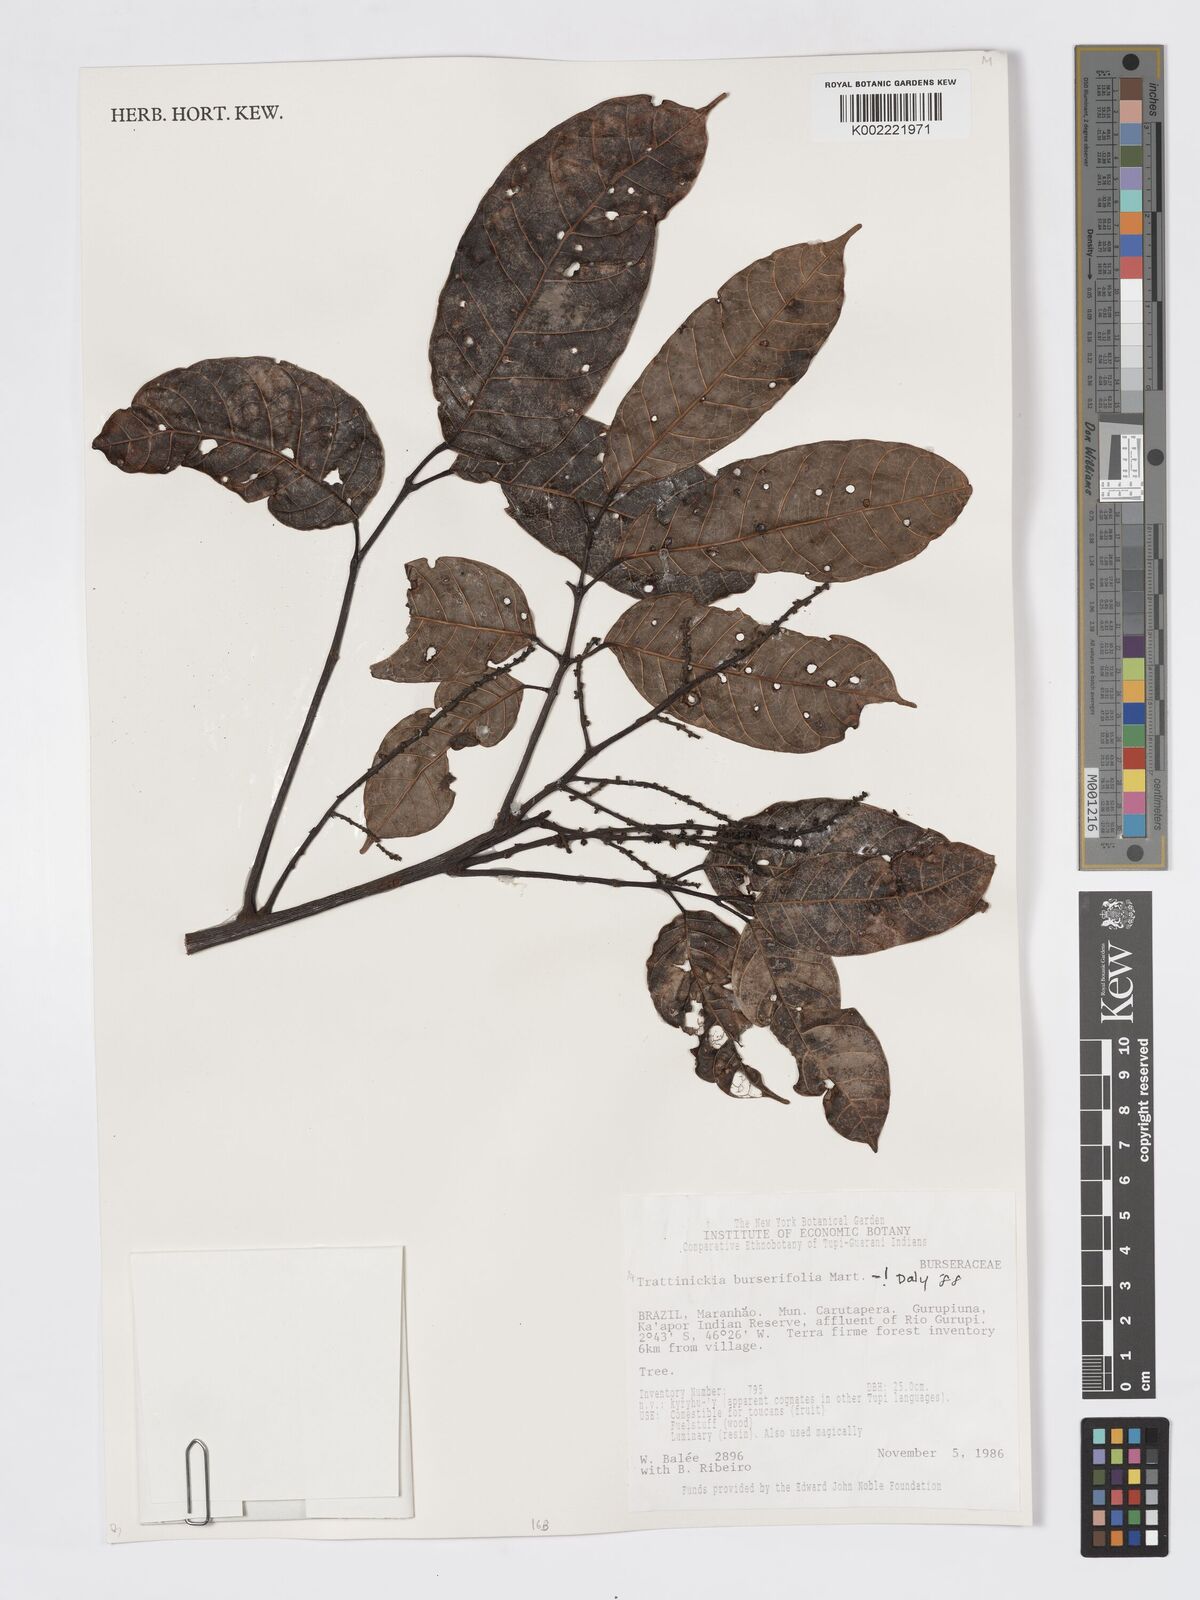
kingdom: Plantae
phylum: Tracheophyta
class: Magnoliopsida
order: Sapindales
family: Burseraceae
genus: Trattinnickia
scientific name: Trattinnickia burserifolia
